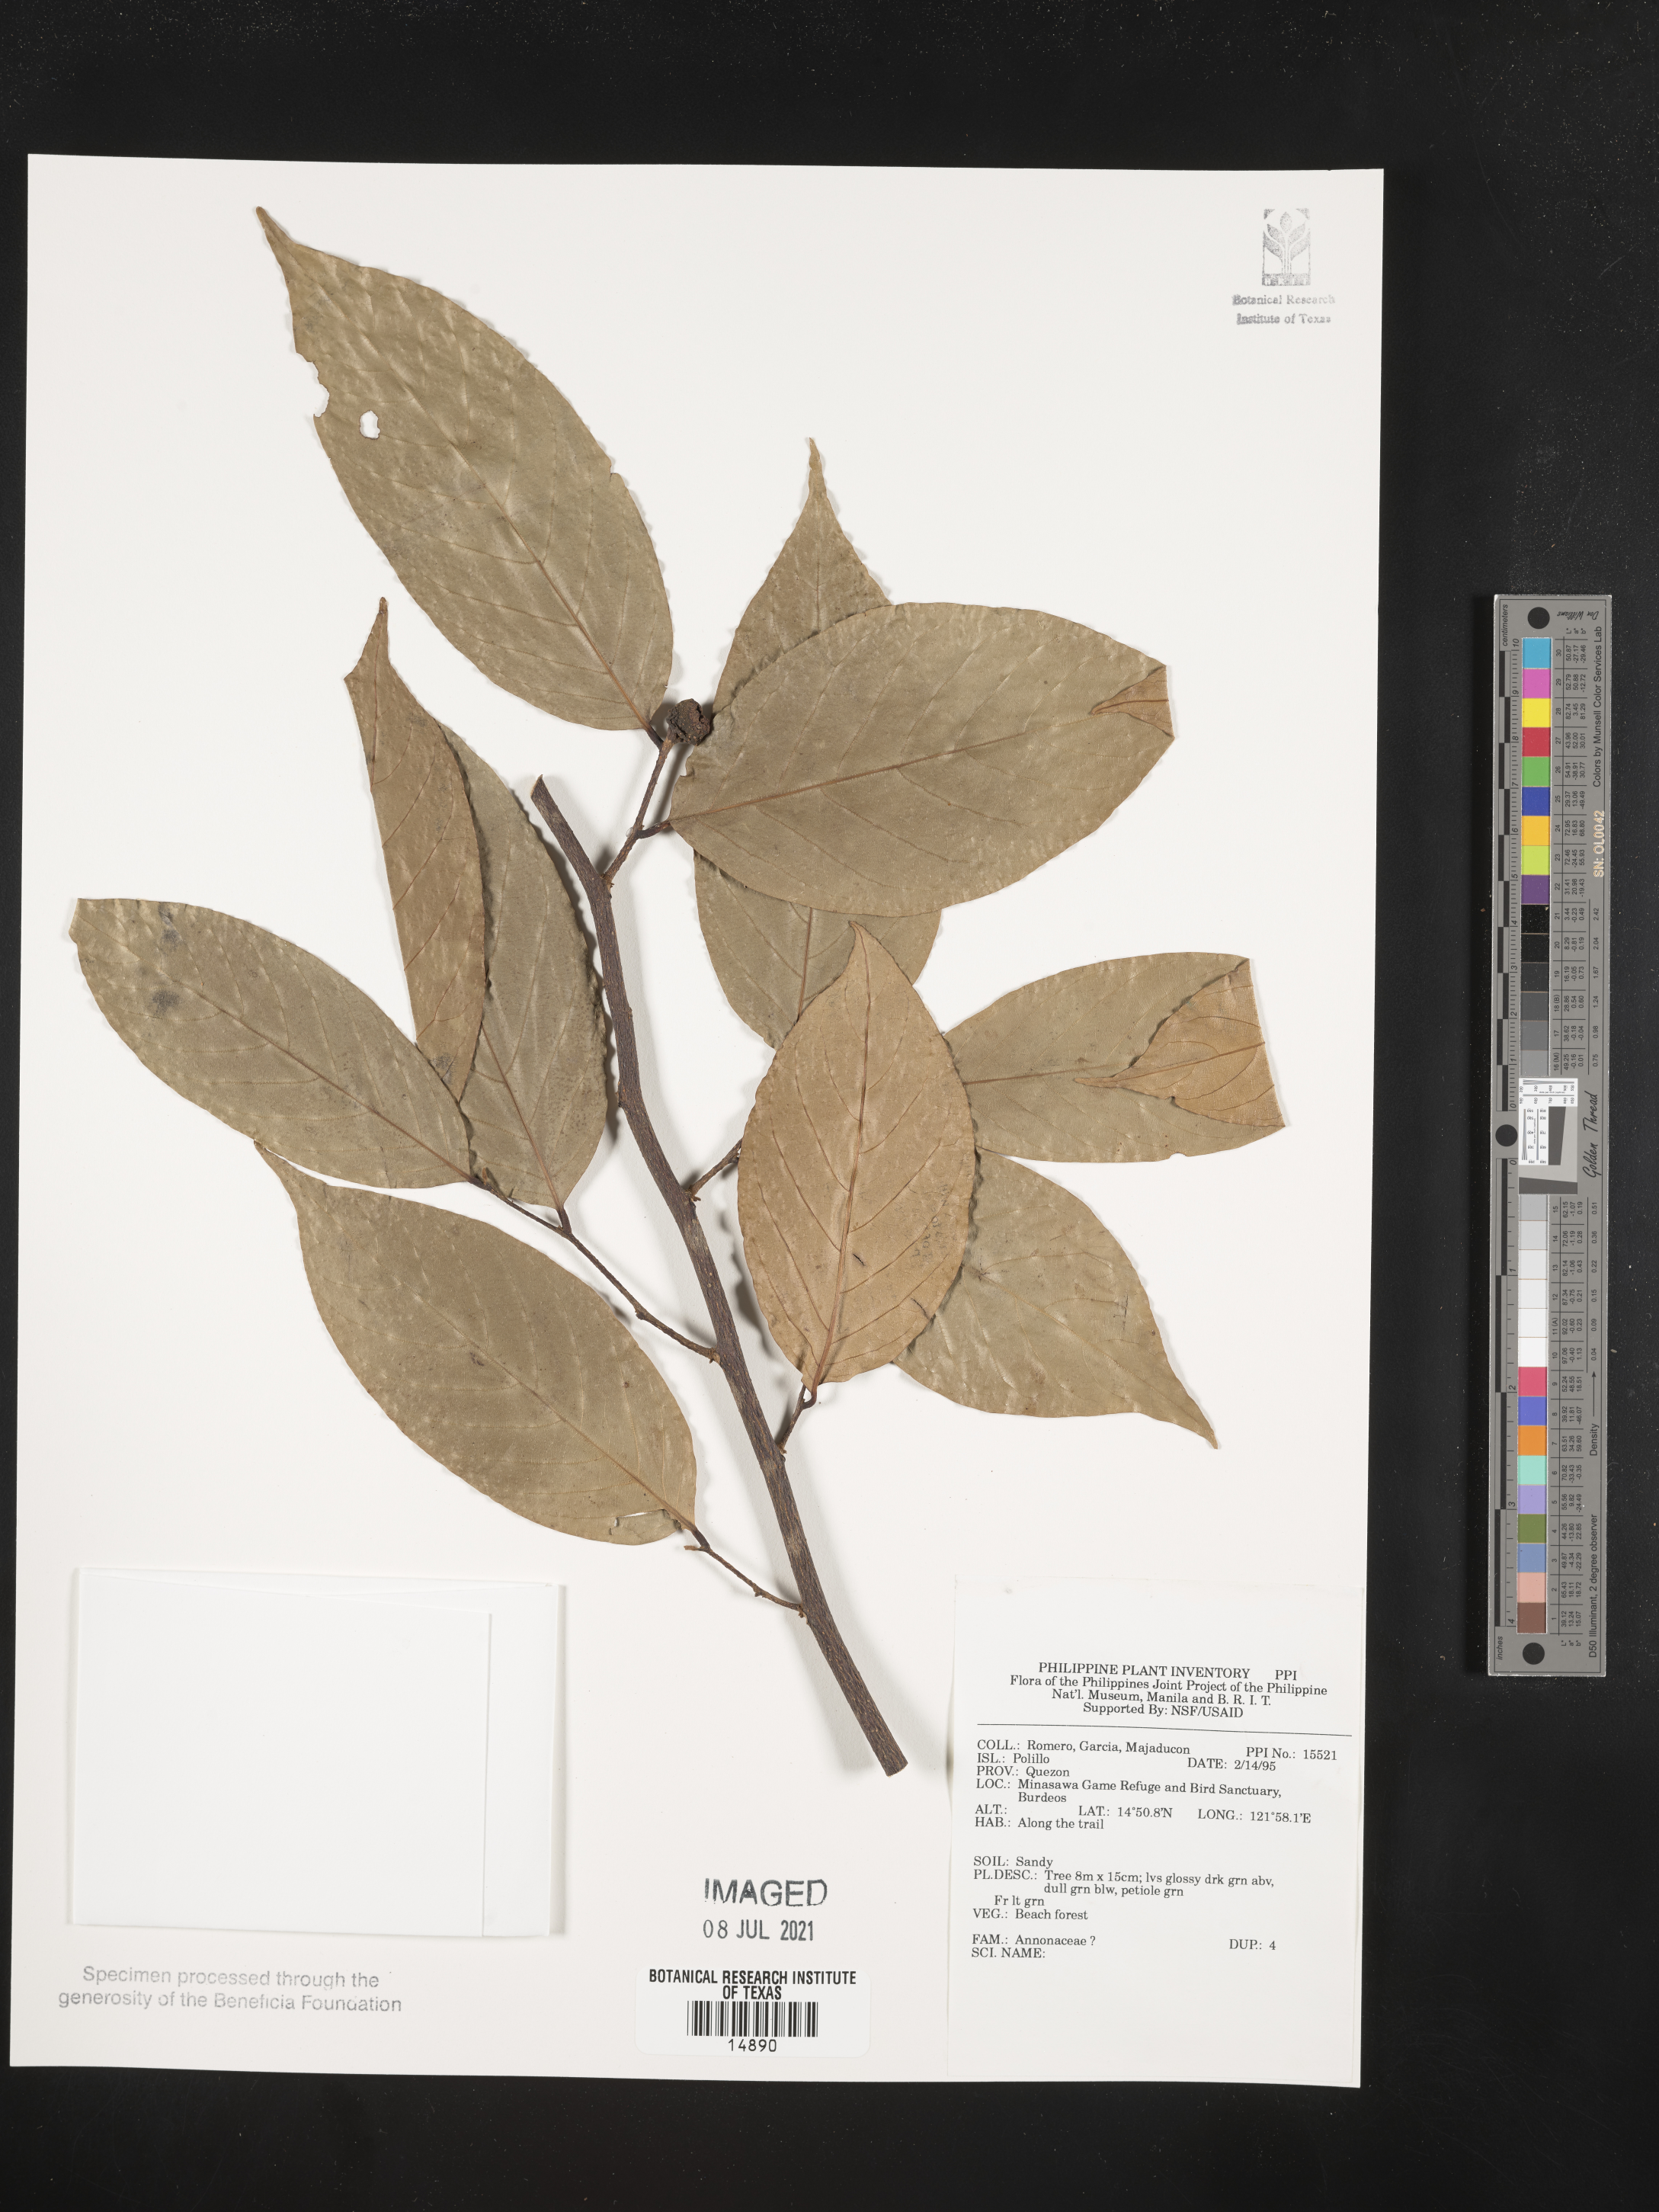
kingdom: Plantae
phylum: Tracheophyta
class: Magnoliopsida
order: Magnoliales
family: Annonaceae
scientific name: Annonaceae
